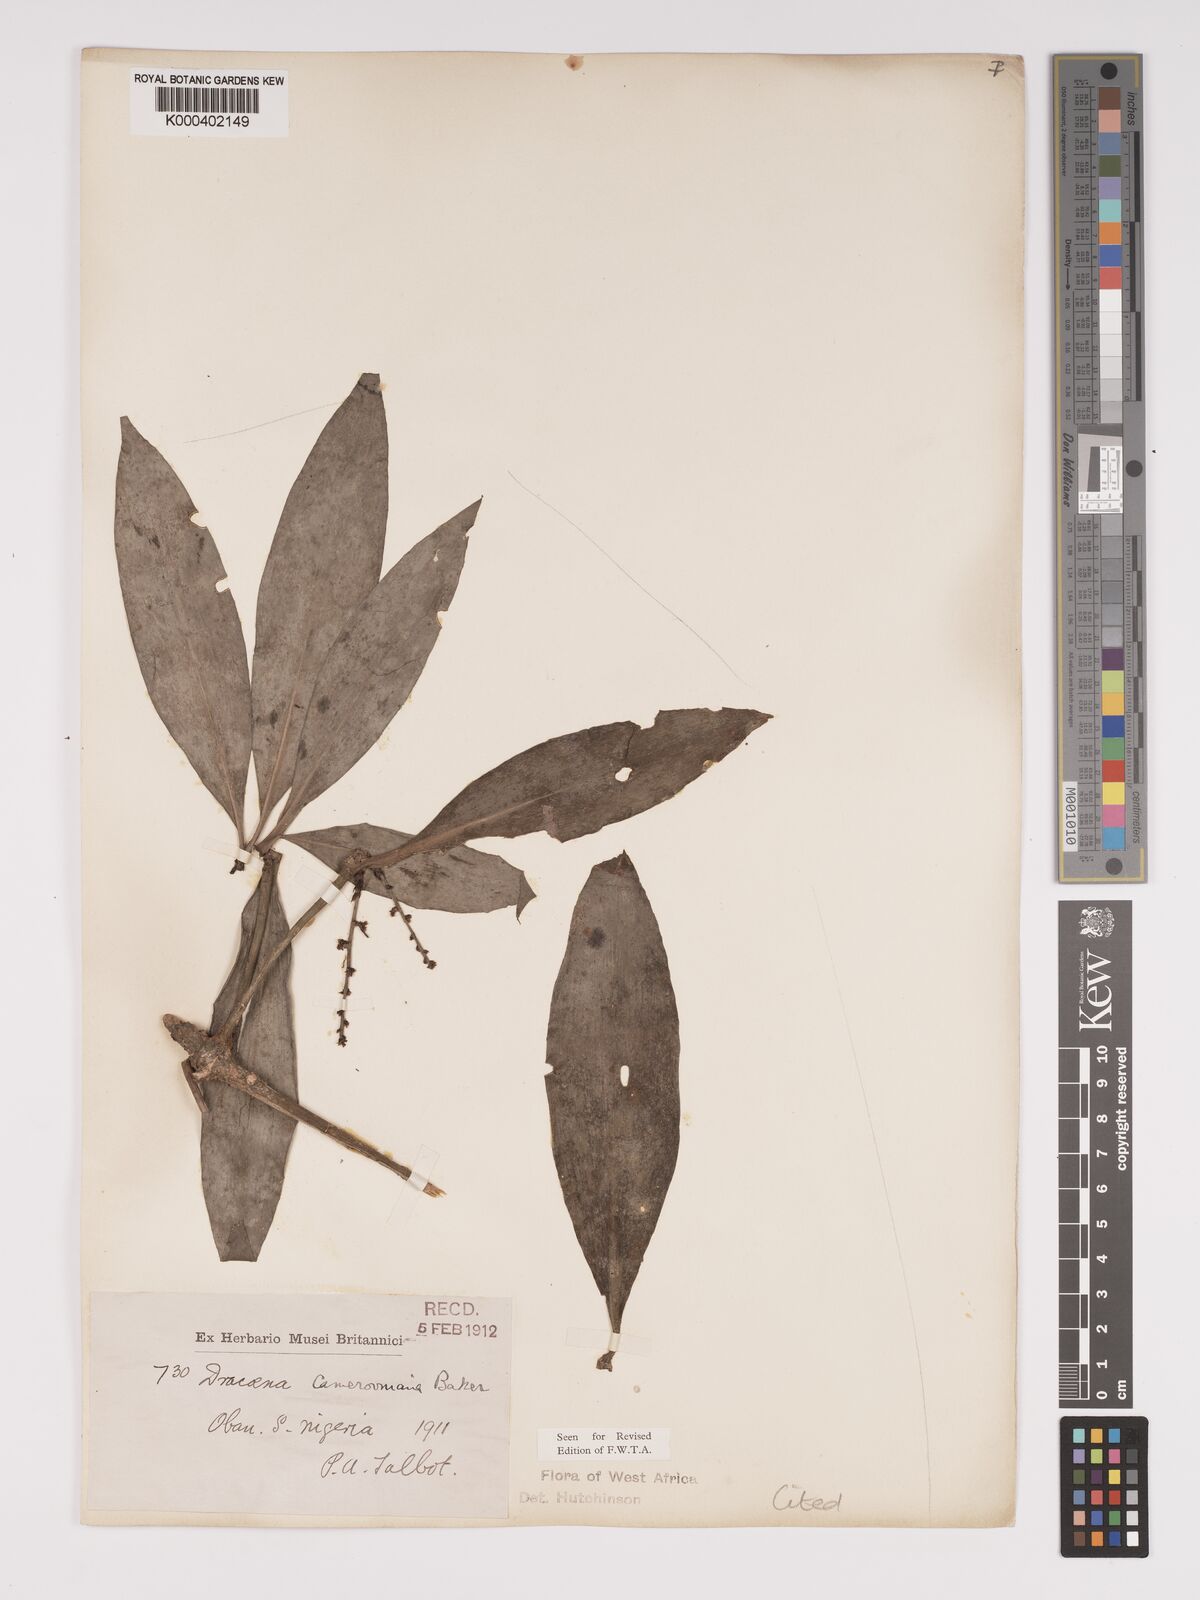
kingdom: Plantae
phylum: Tracheophyta
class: Liliopsida
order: Asparagales
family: Asparagaceae
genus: Dracaena
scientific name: Dracaena camerooniana
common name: Dragon tree
